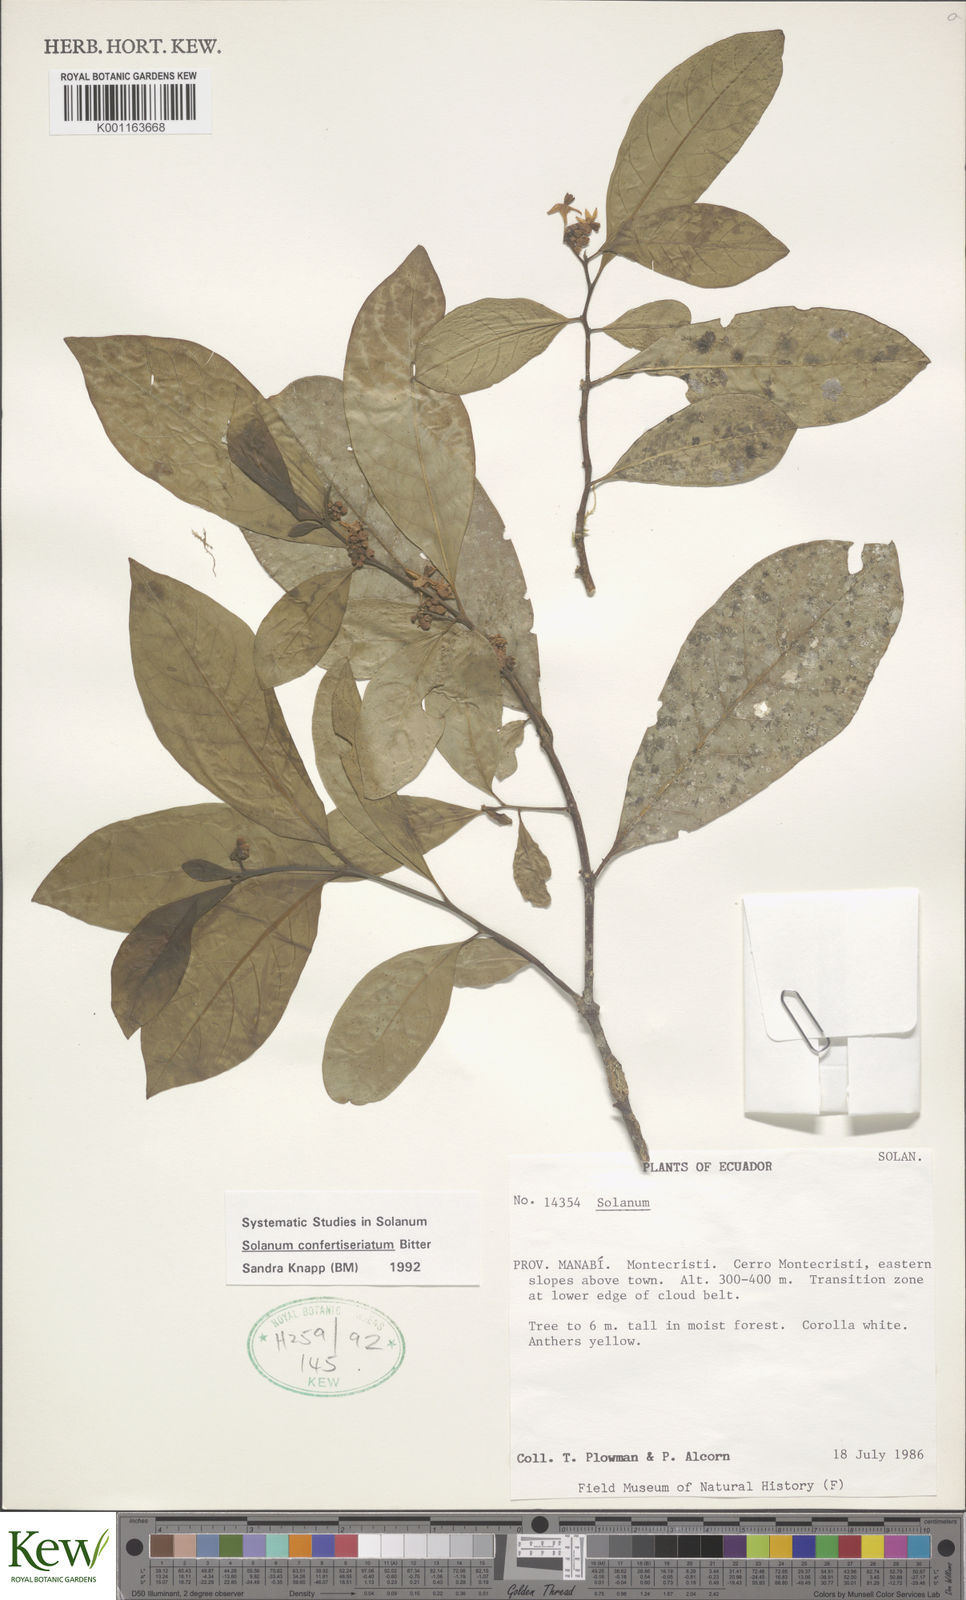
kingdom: Plantae
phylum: Tracheophyta
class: Magnoliopsida
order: Solanales
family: Solanaceae
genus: Solanum
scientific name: Solanum confertiseriatum
